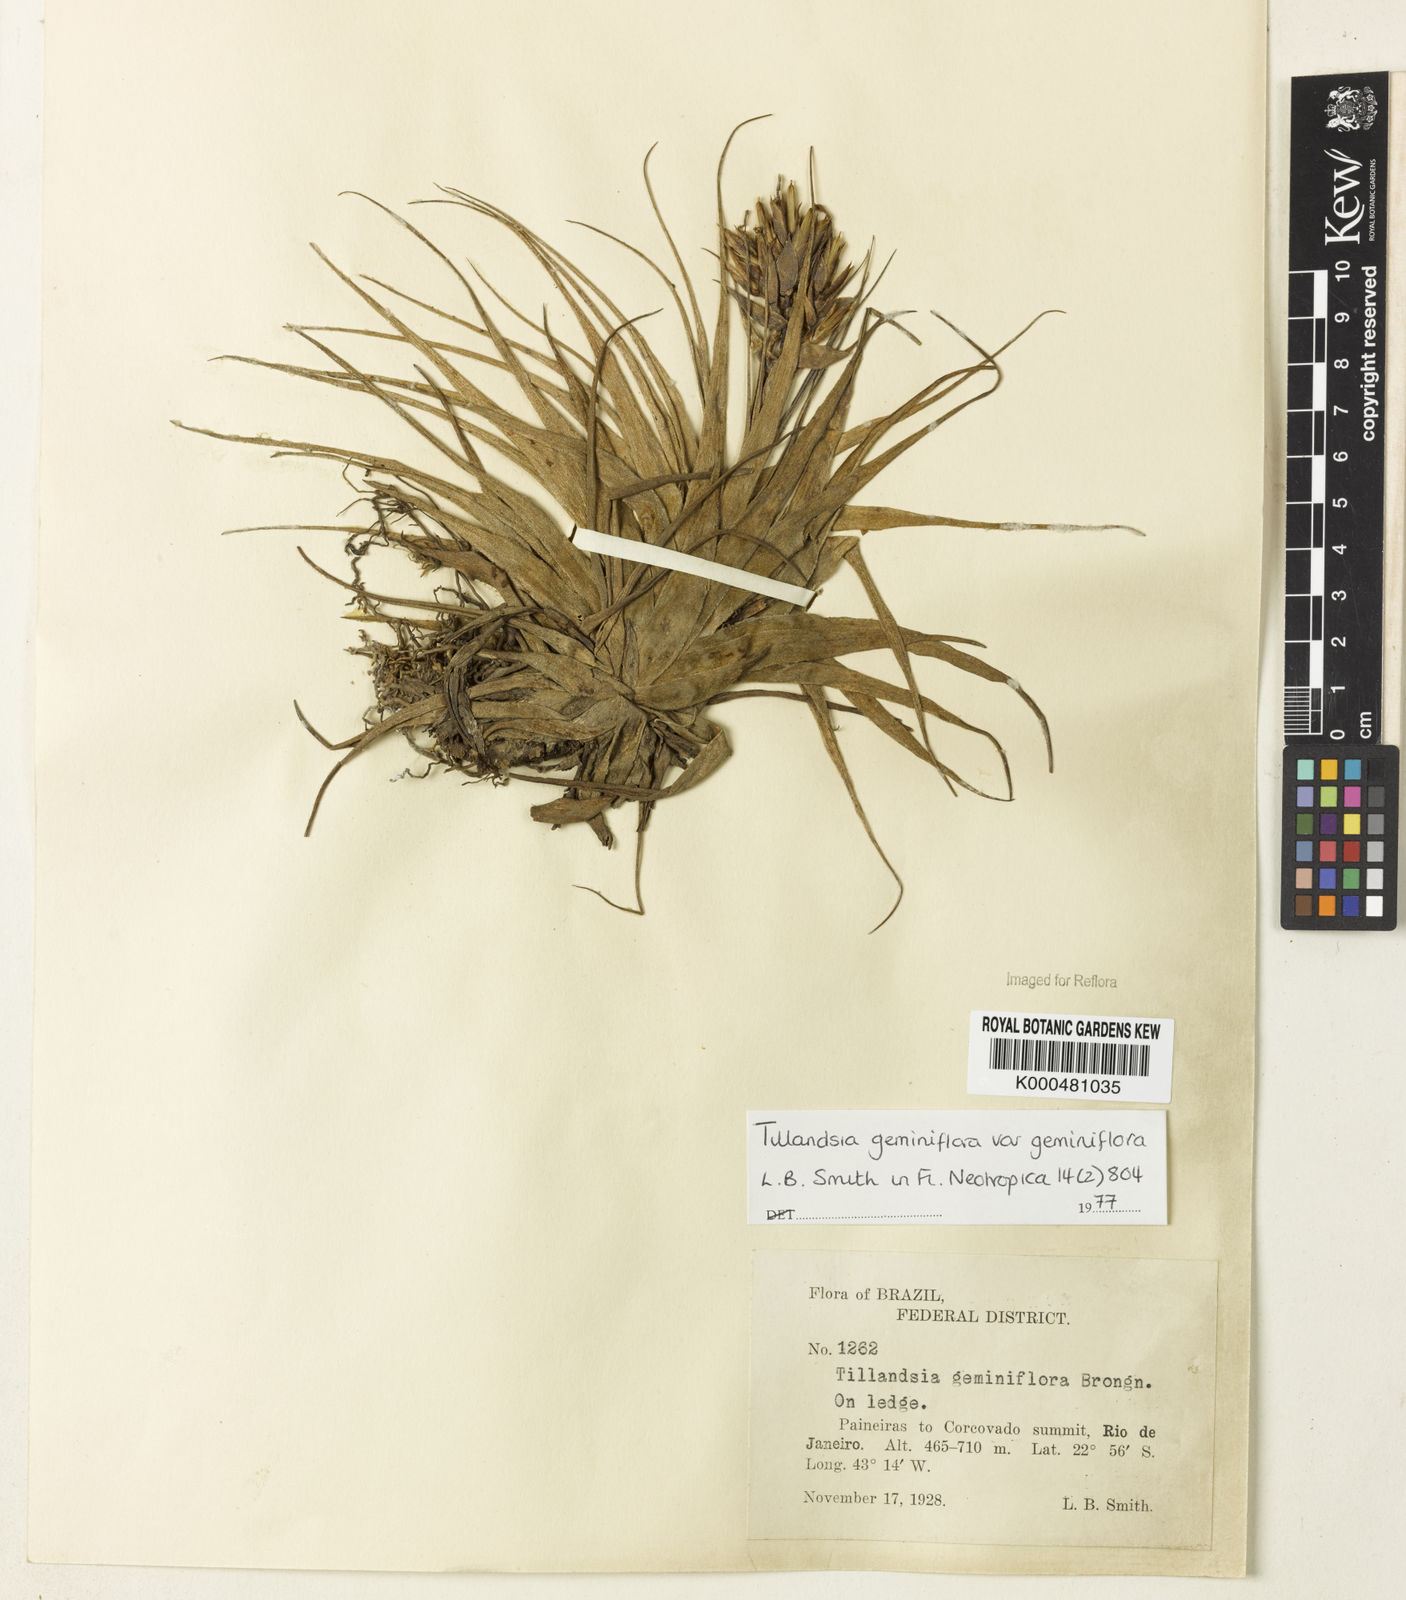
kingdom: Plantae
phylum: Tracheophyta
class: Liliopsida
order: Poales
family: Bromeliaceae
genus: Tillandsia
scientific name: Tillandsia geminiflora
